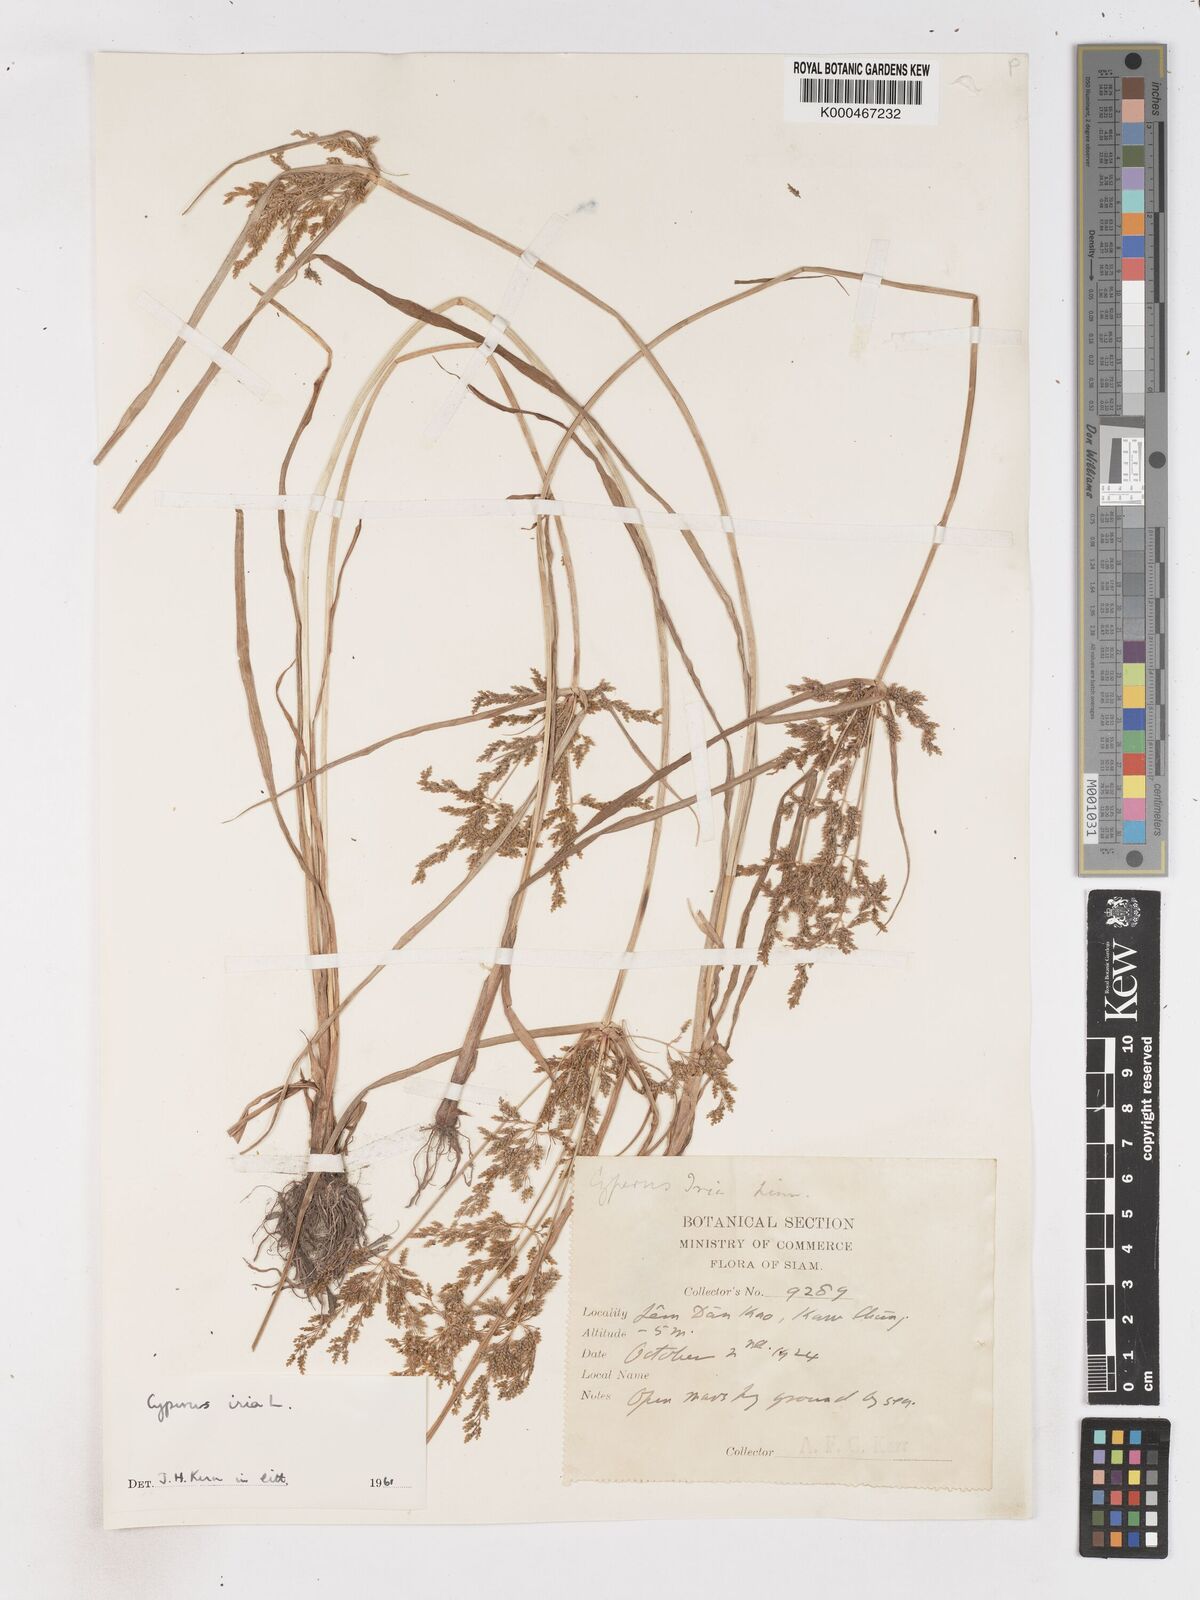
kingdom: Plantae
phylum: Tracheophyta
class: Liliopsida
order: Poales
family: Cyperaceae
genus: Cyperus
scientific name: Cyperus iria
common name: Ricefield flatsedge
